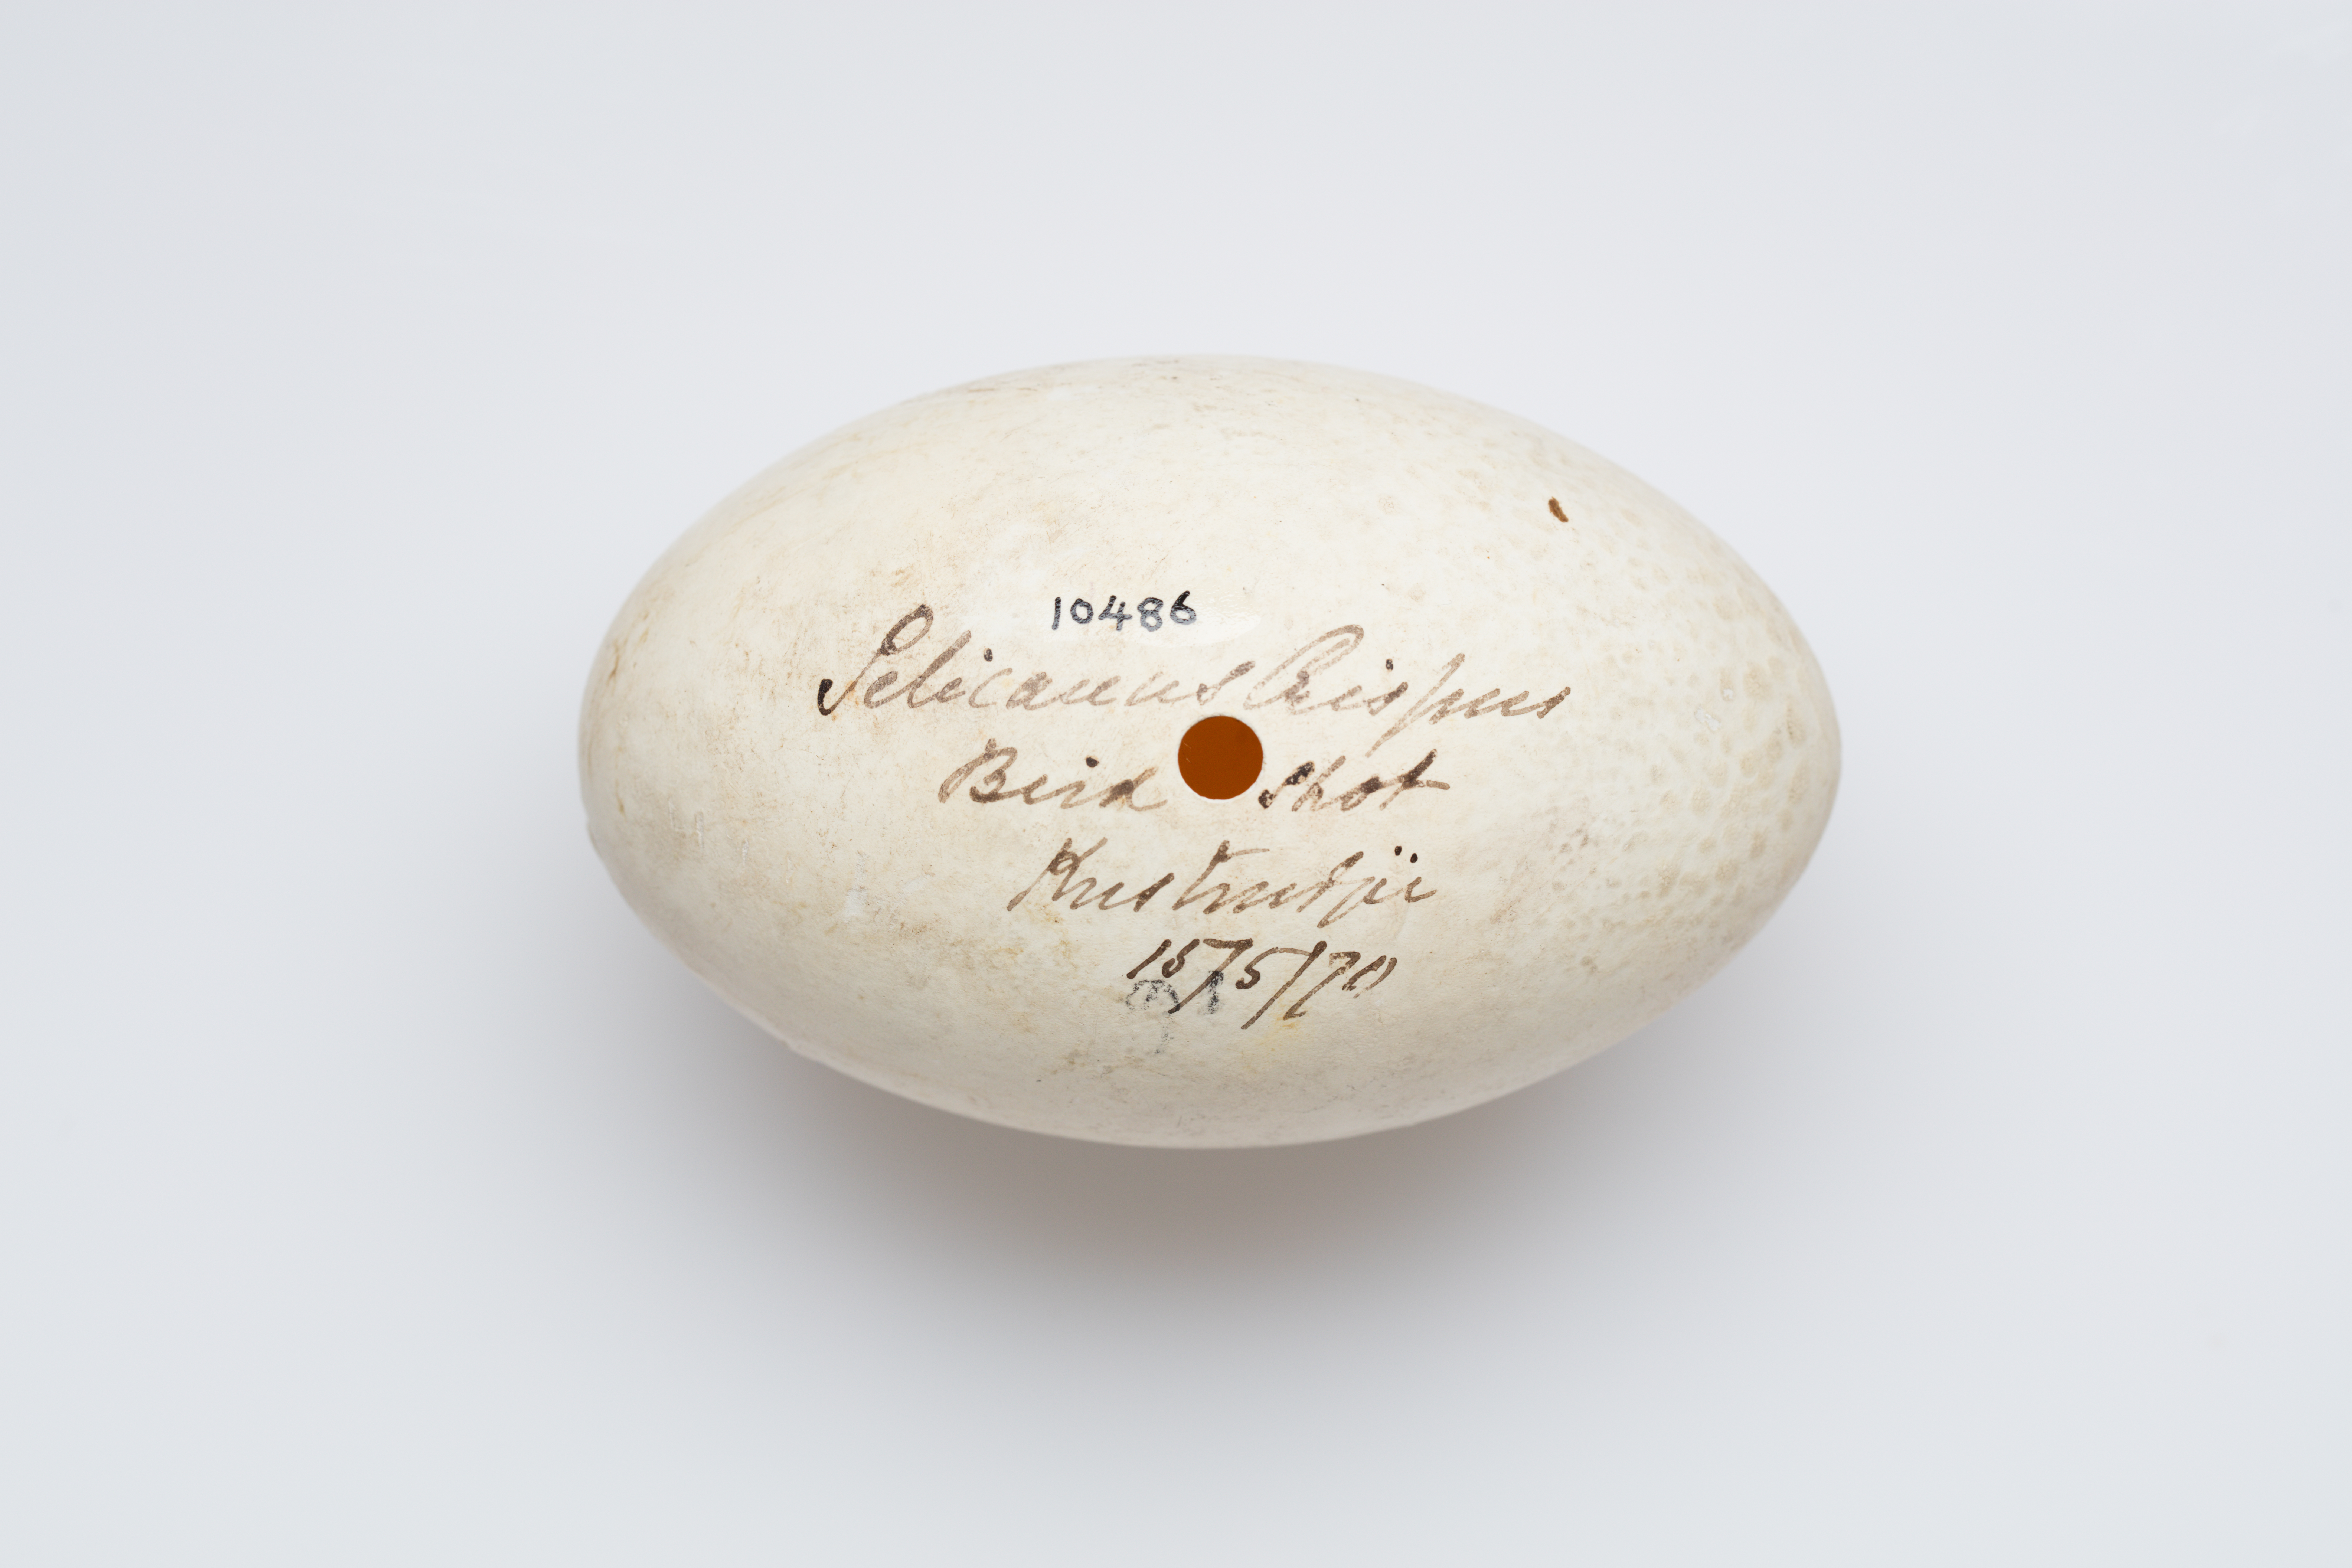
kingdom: Animalia
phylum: Chordata
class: Aves
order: Pelecaniformes
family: Pelecanidae
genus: Pelecanus
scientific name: Pelecanus crispus
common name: Dalmatian pelican
